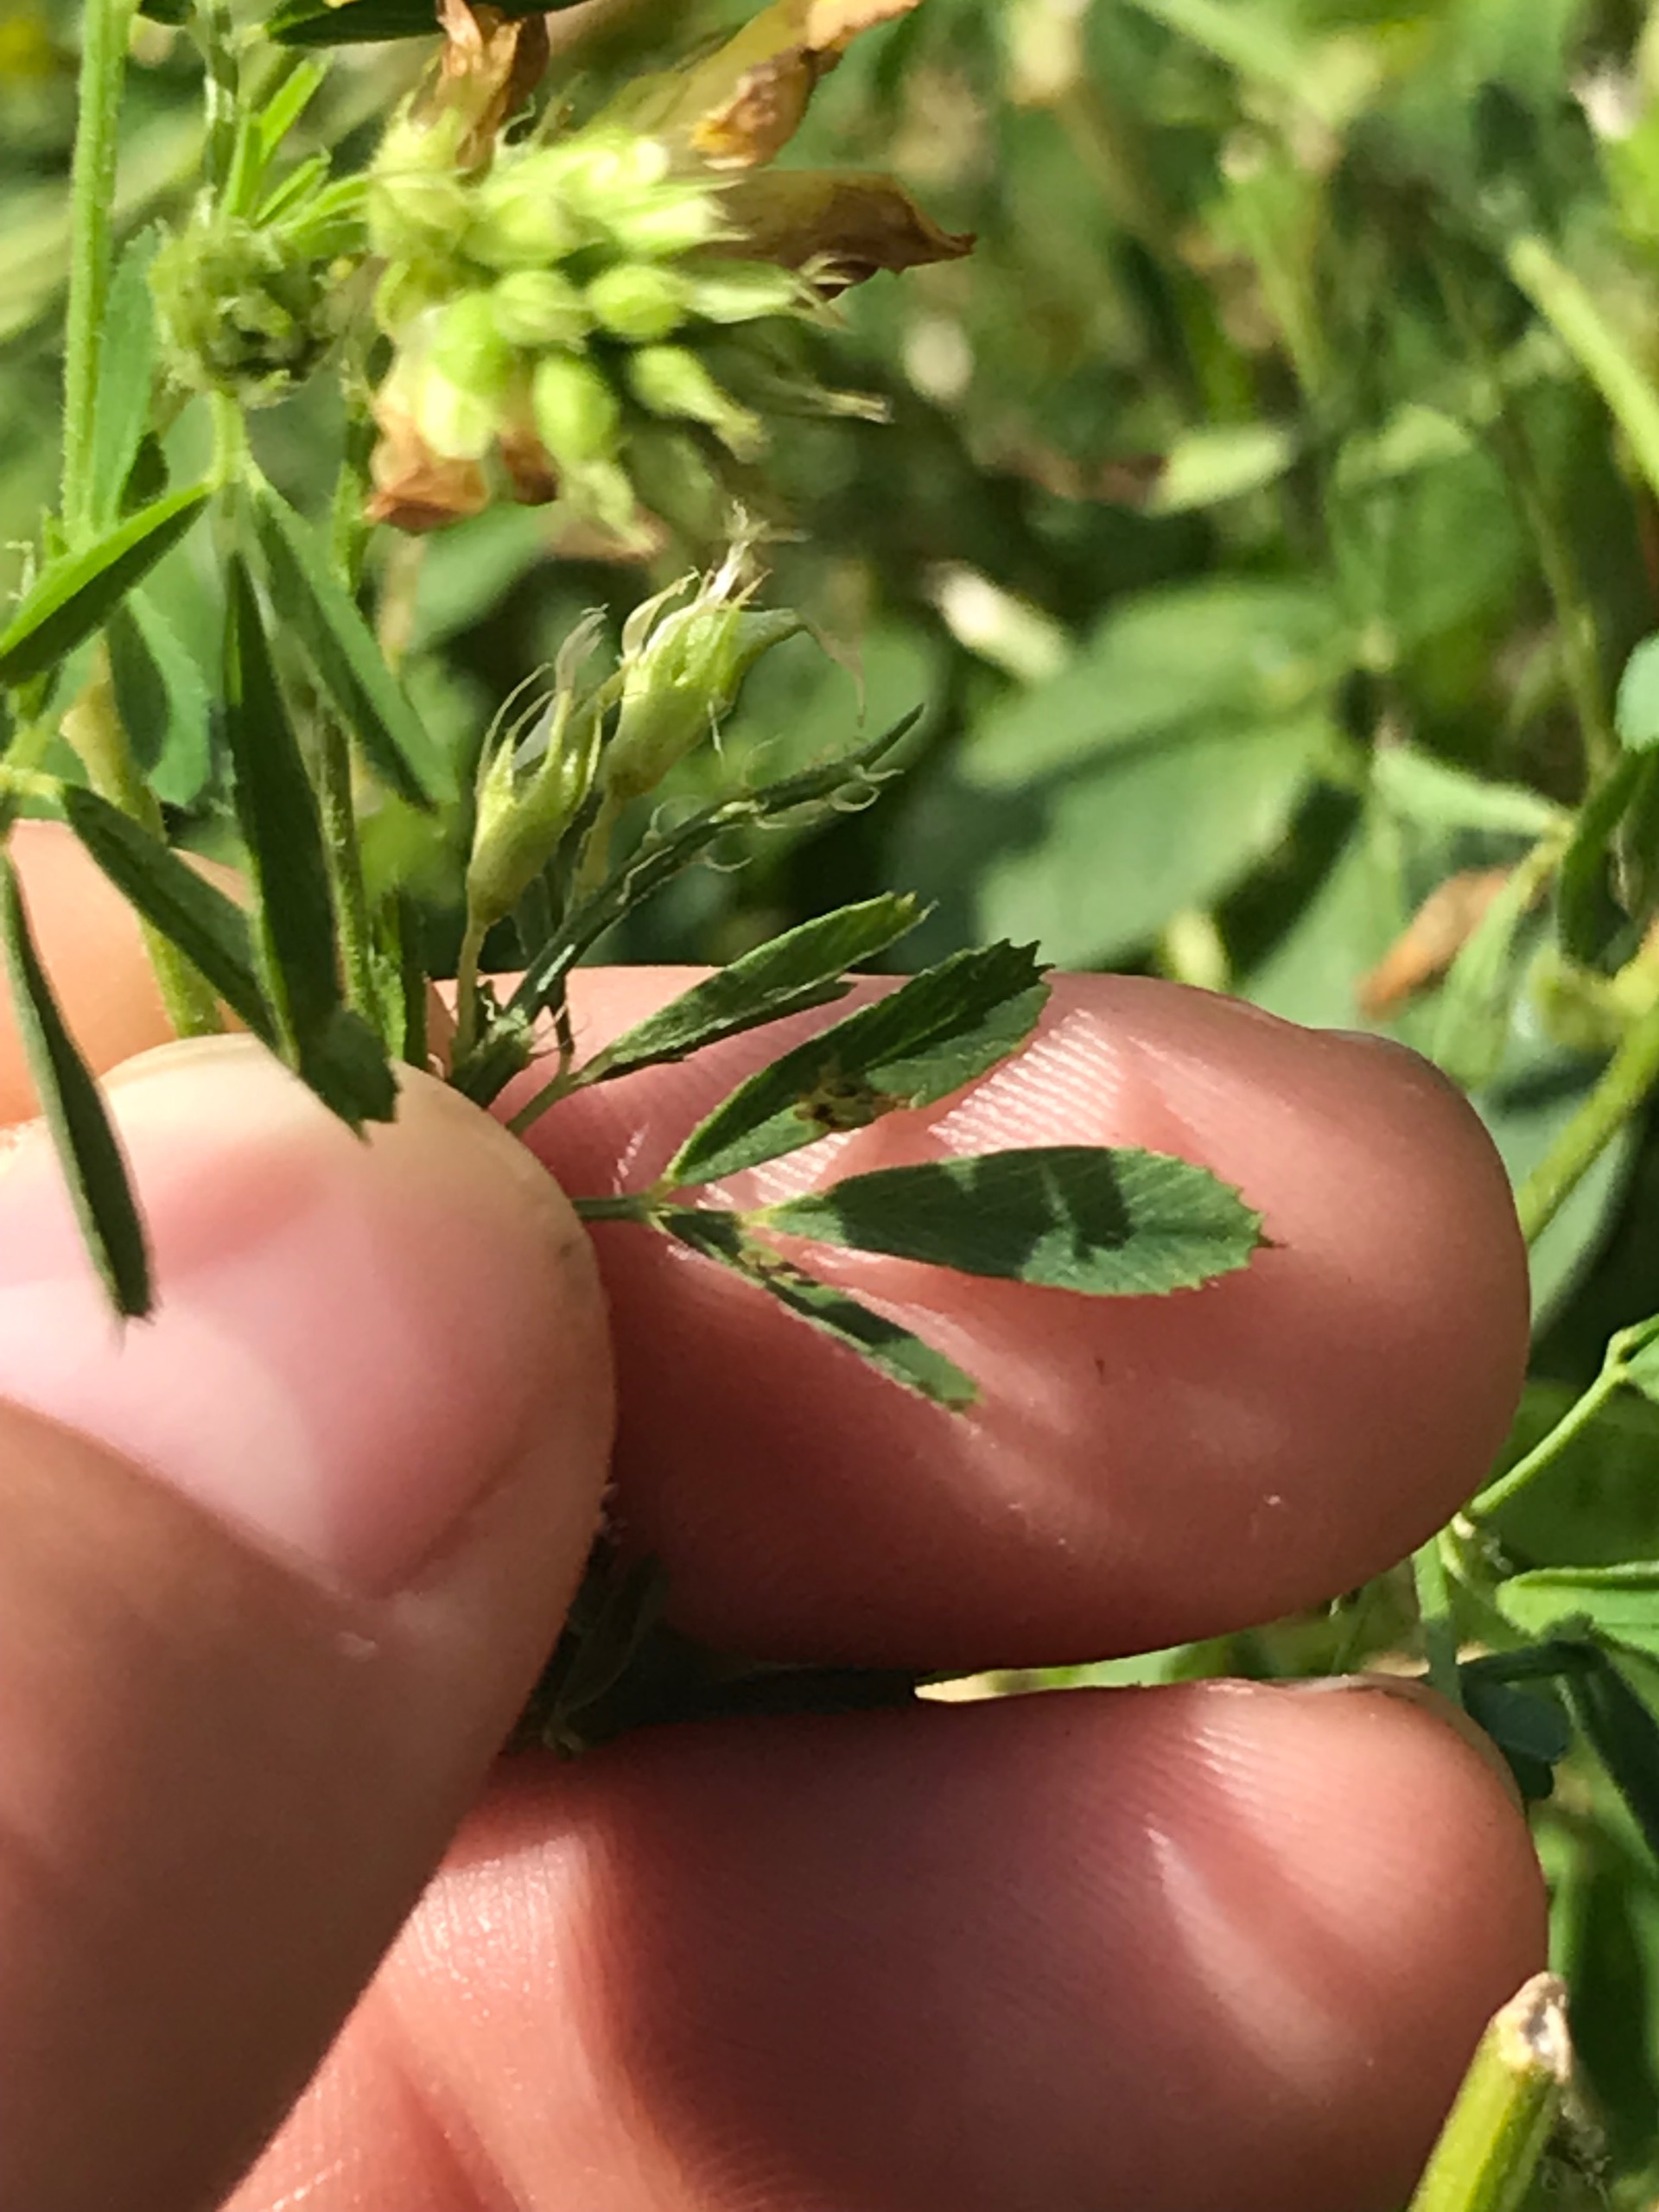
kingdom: Plantae
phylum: Tracheophyta
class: Magnoliopsida
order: Fabales
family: Fabaceae
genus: Medicago
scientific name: Medicago falcata
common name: Segl-sneglebælg
